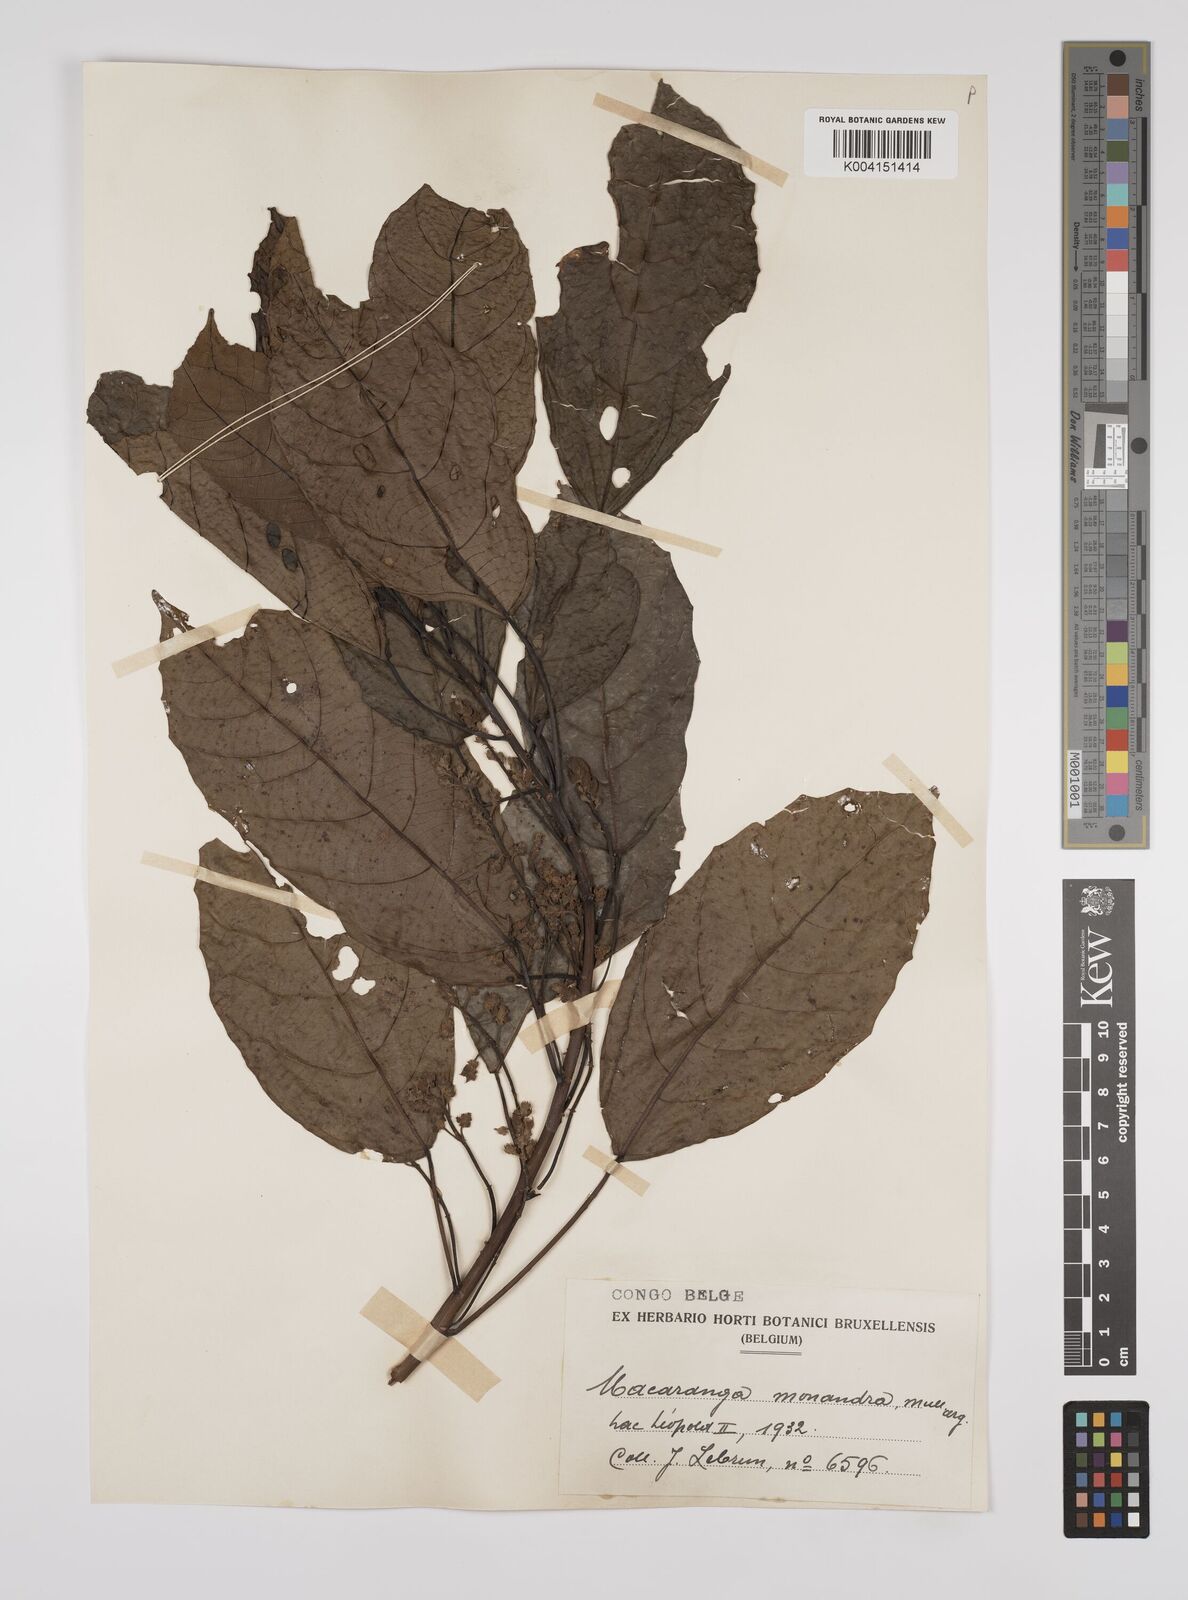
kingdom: Plantae
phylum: Tracheophyta
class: Magnoliopsida
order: Malpighiales
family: Euphorbiaceae
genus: Macaranga
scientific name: Macaranga monandra
